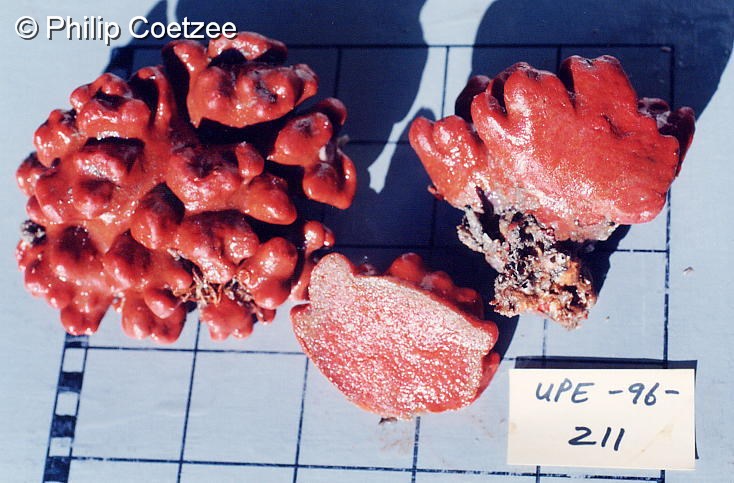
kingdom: Animalia
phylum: Chordata
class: Ascidiacea
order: Aplousobranchia
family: Pseudodistomidae
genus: Pseudodistoma
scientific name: Pseudodistoma
